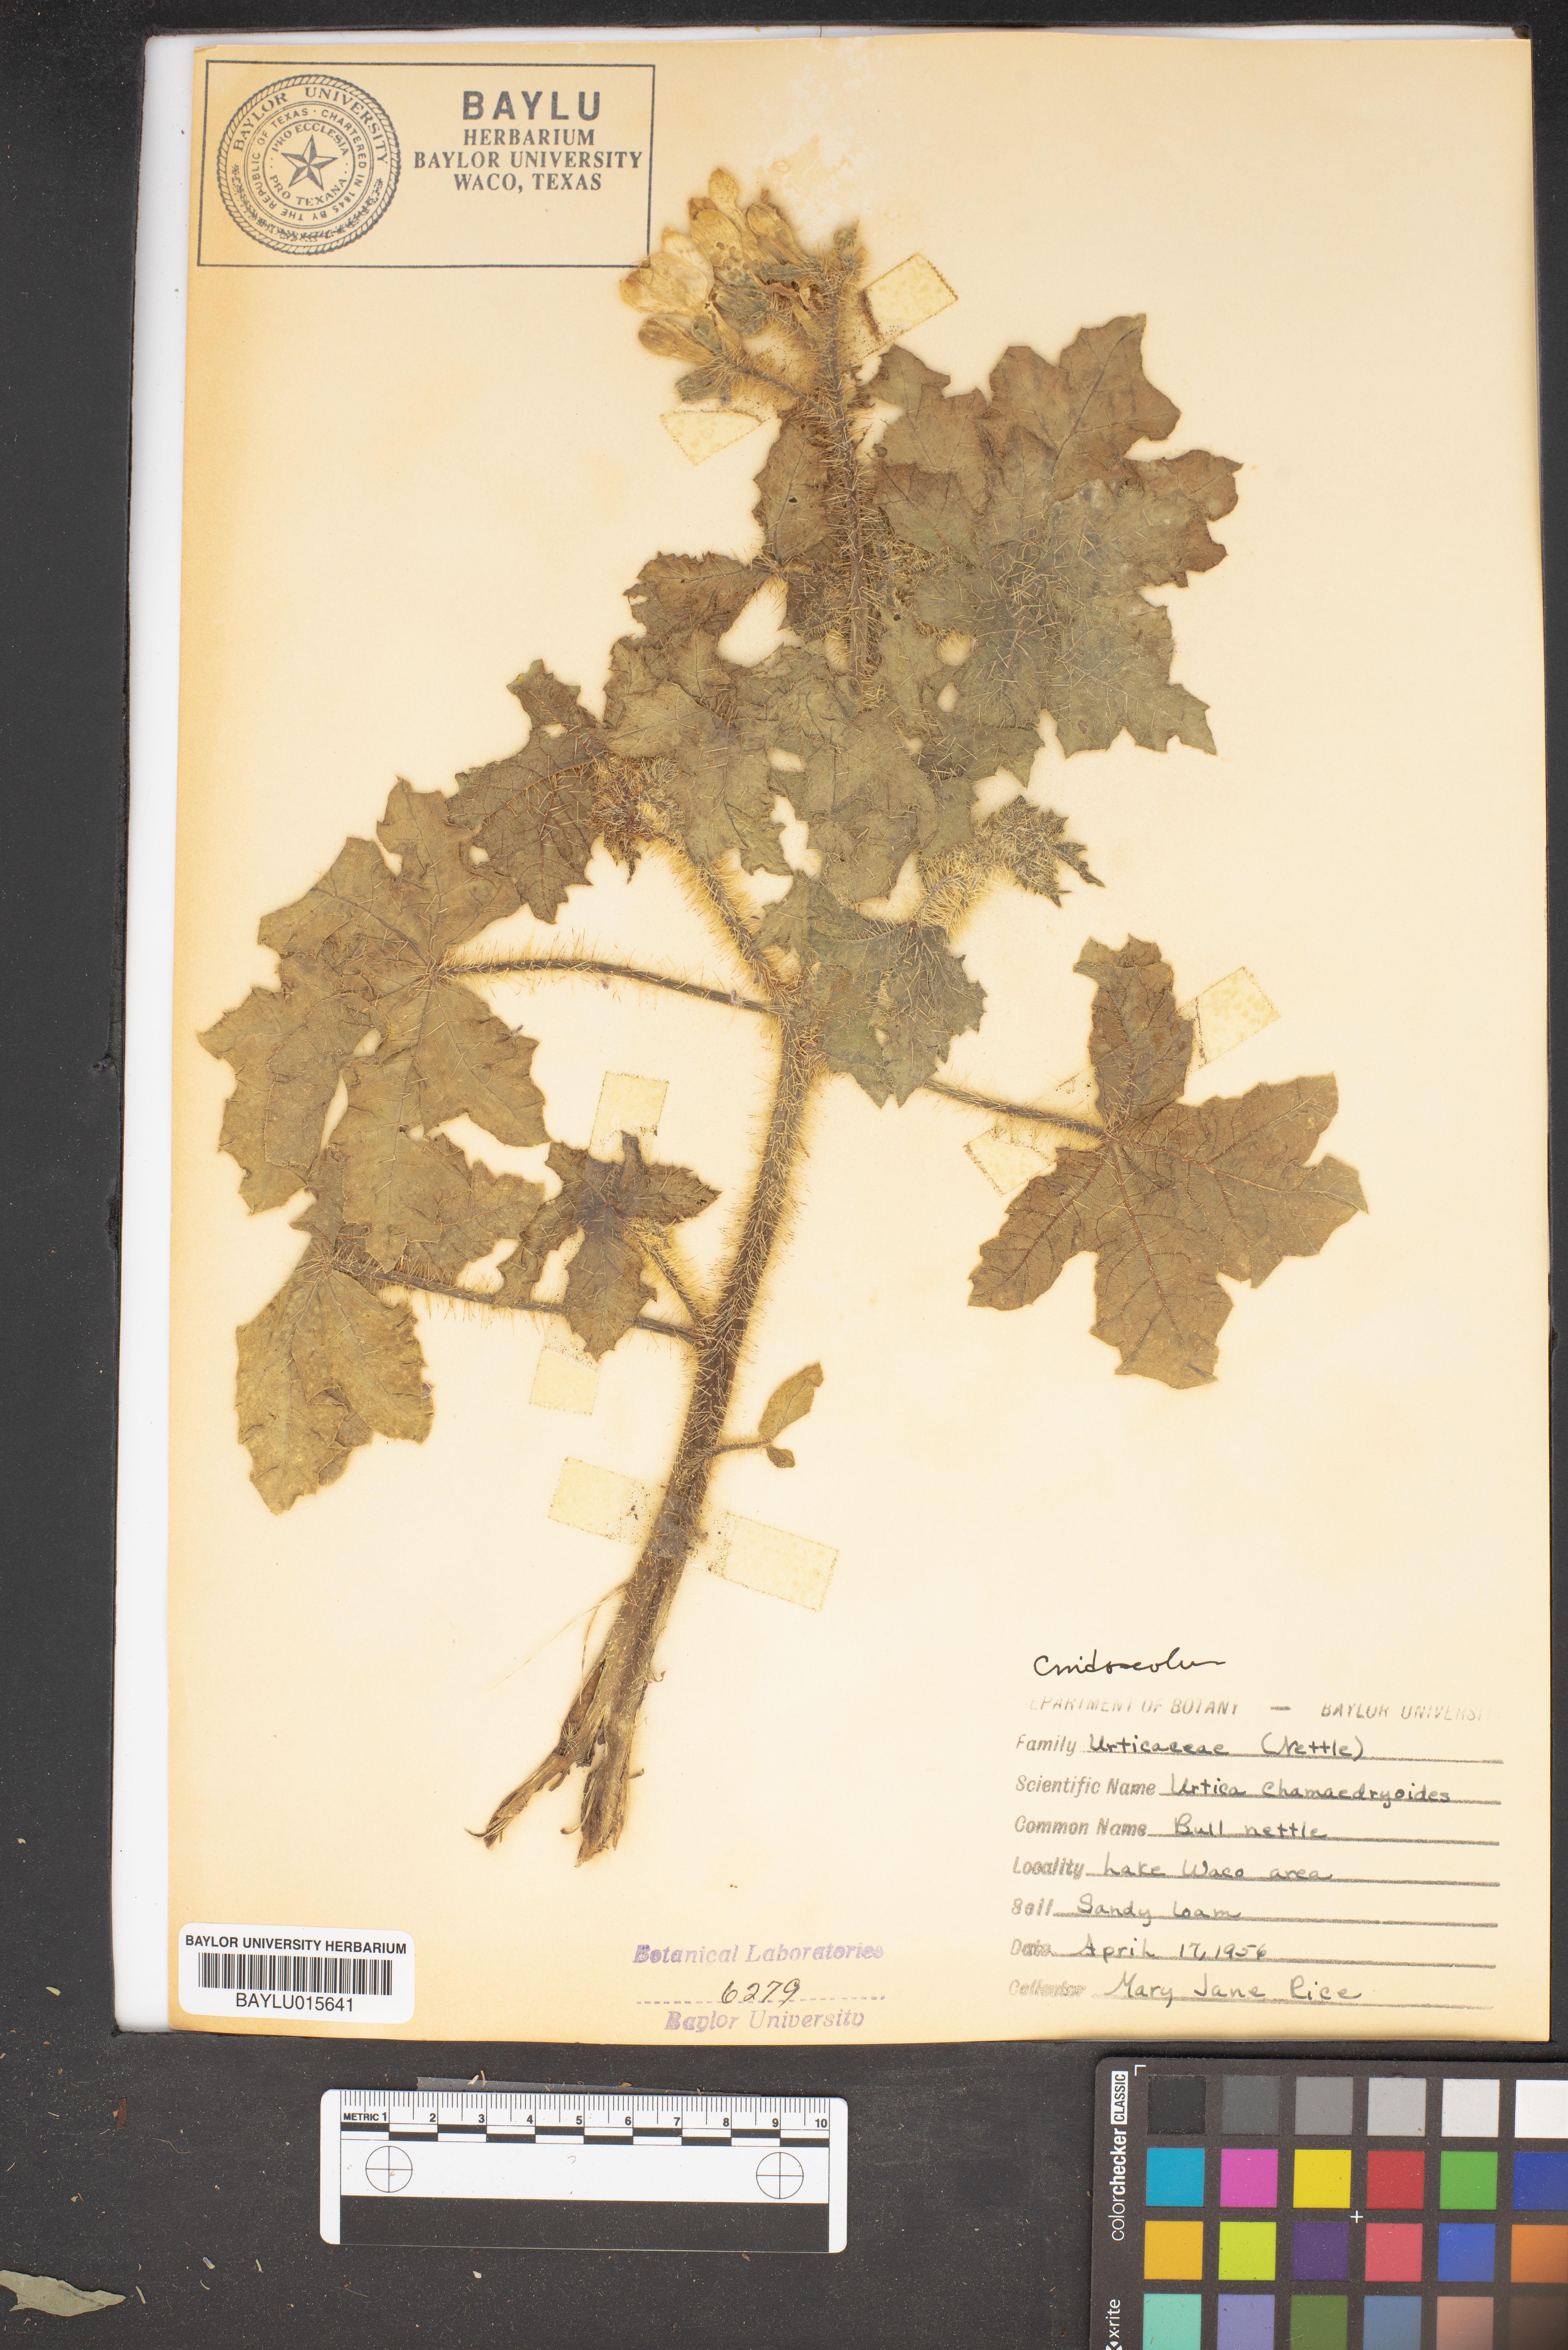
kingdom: Plantae
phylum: Tracheophyta
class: Magnoliopsida
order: Rosales
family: Urticaceae
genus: Urtica
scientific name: Urtica chamaedryoides
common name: Heart-leaf nettle
